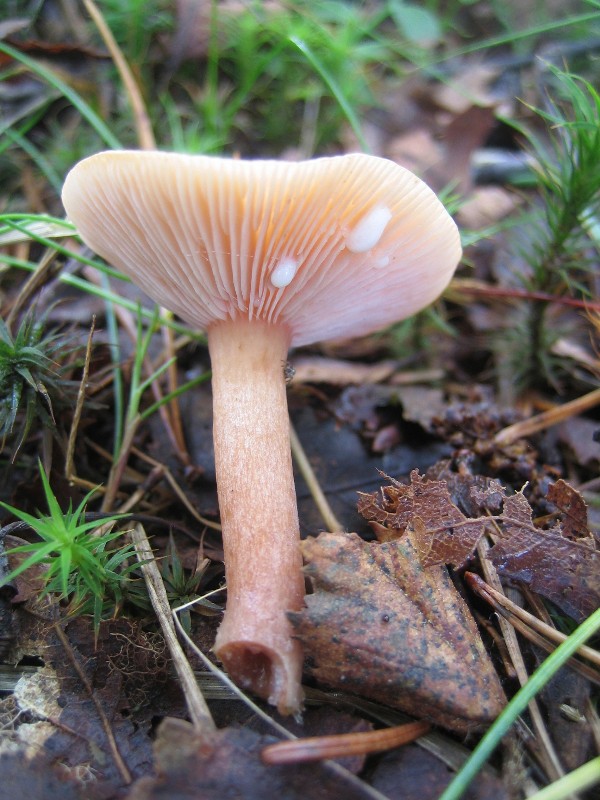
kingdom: Fungi
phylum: Basidiomycota
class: Agaricomycetes
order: Russulales
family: Russulaceae
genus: Lactarius
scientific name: Lactarius tabidus
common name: rynket mælkehat
